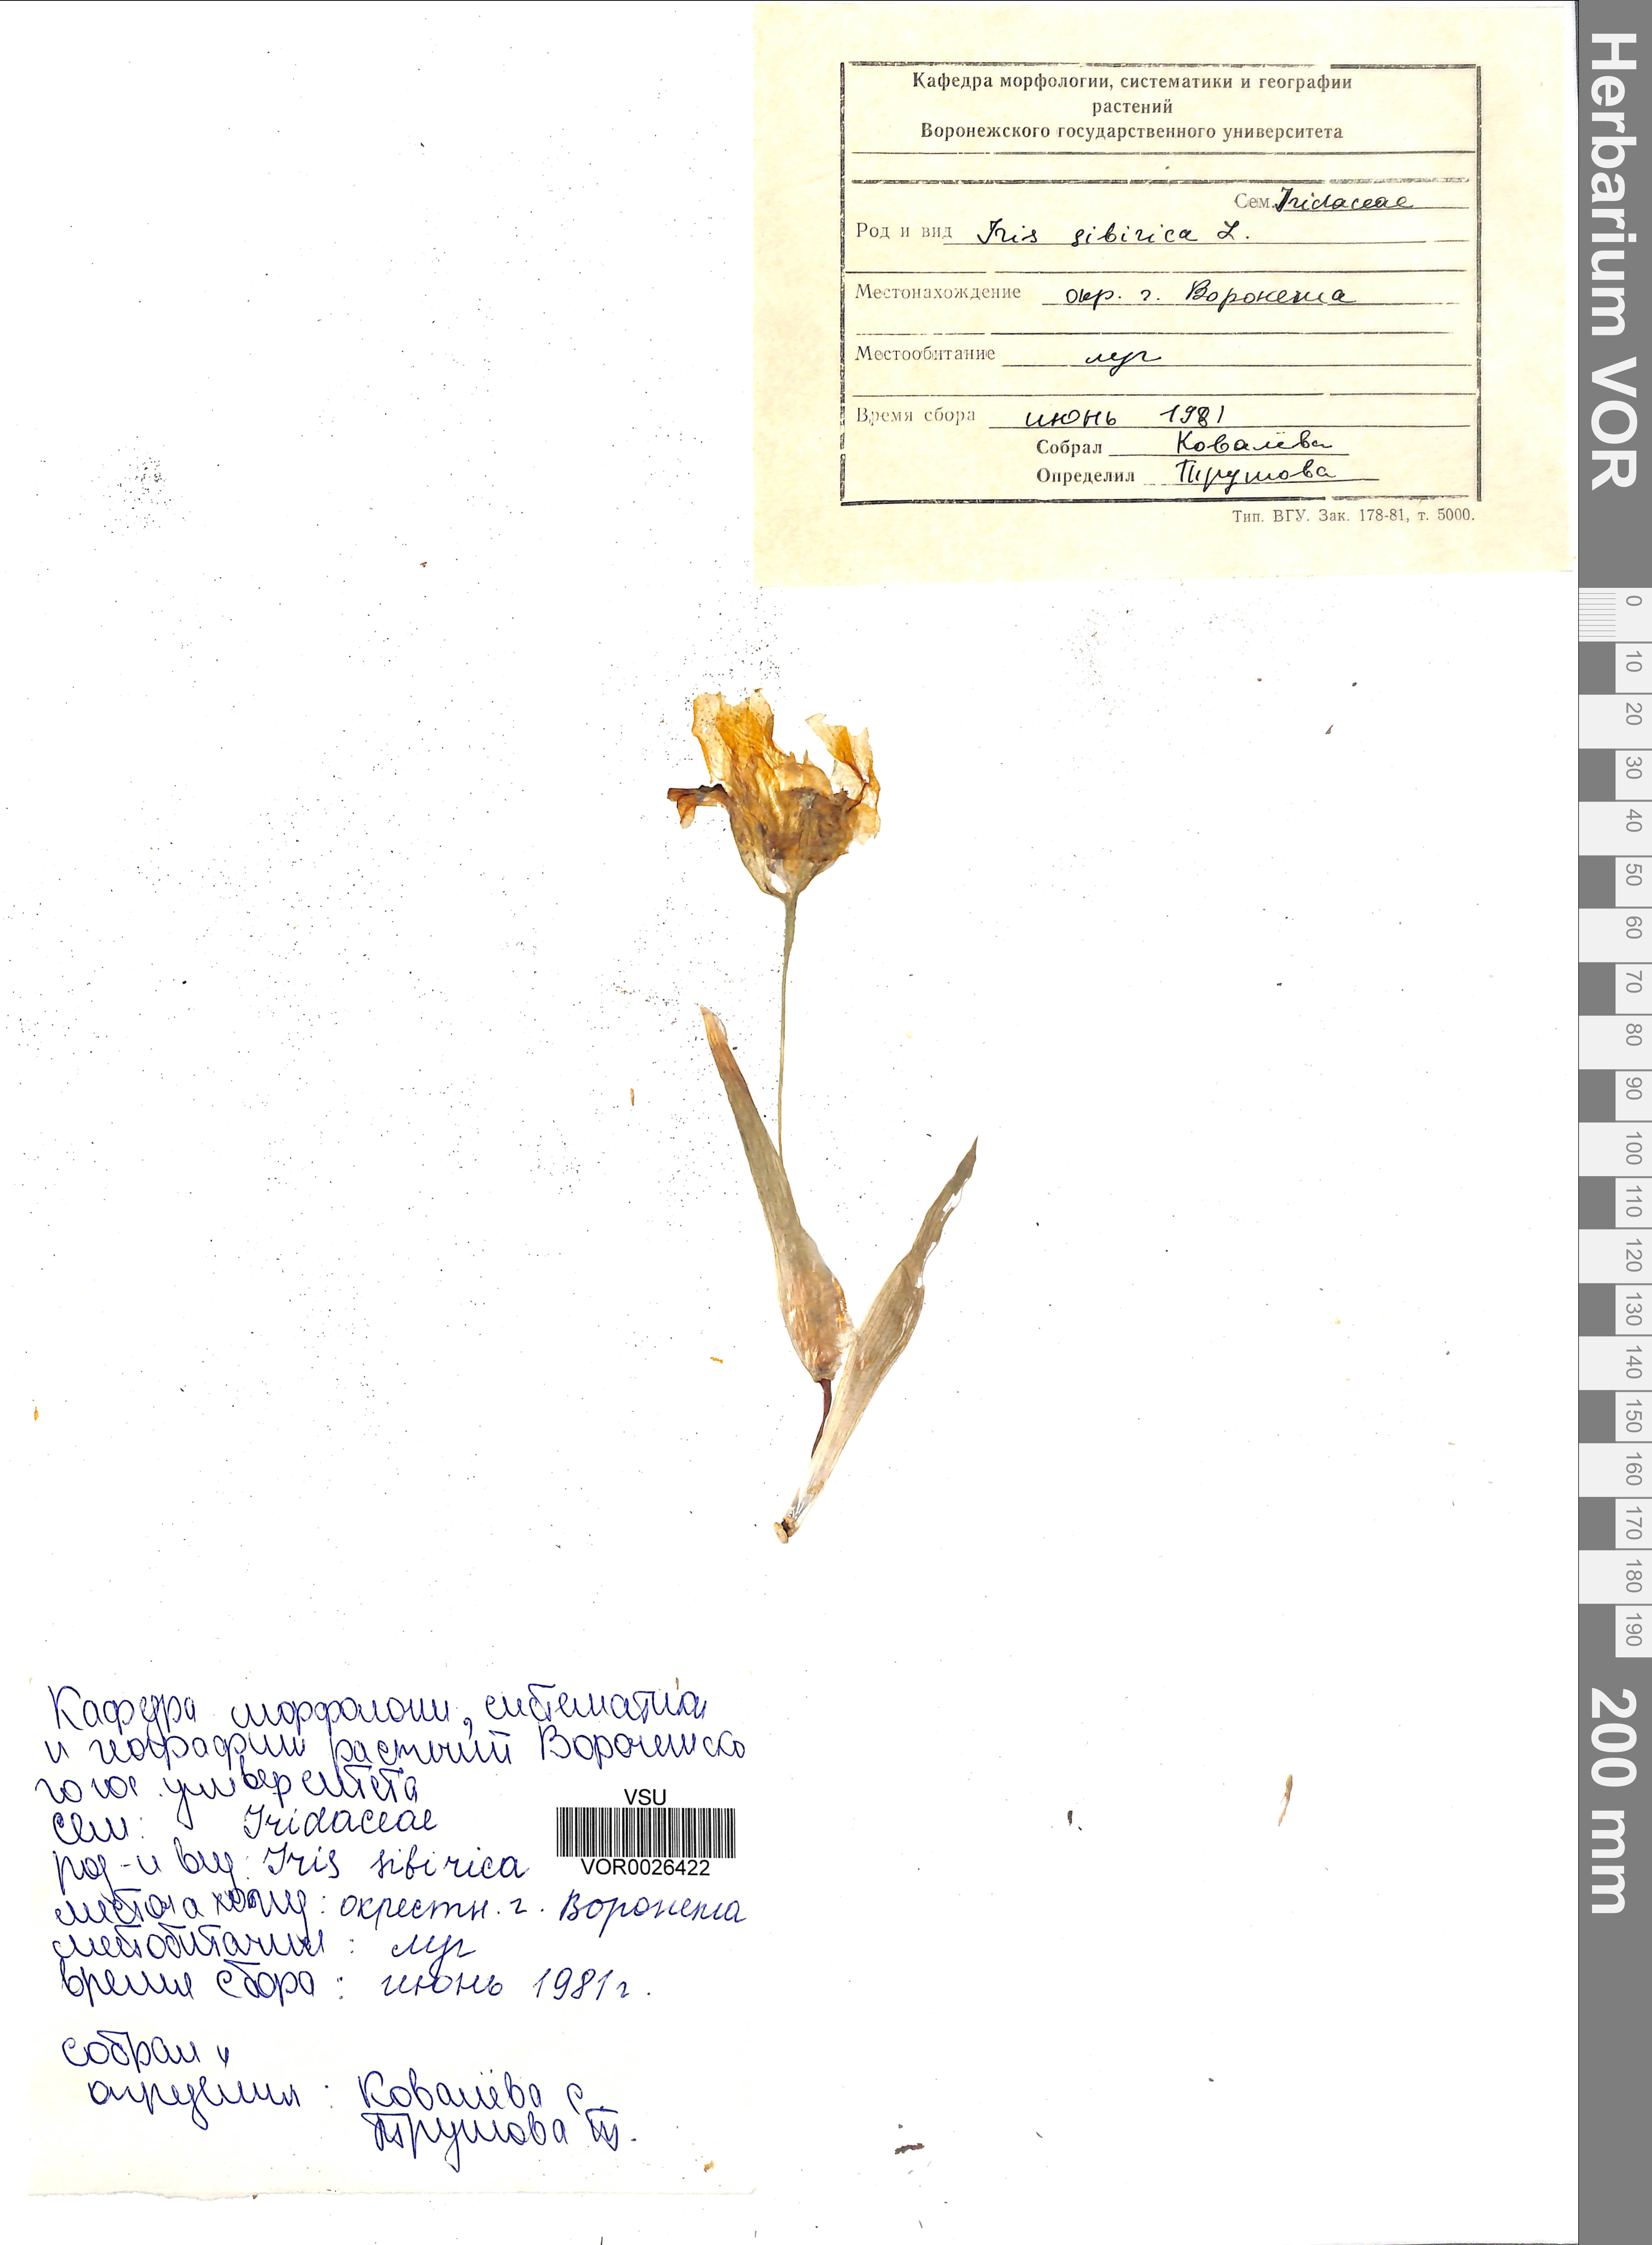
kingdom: Plantae
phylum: Tracheophyta
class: Liliopsida
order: Asparagales
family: Iridaceae
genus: Iris
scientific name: Iris sibirica
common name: Siberian iris
